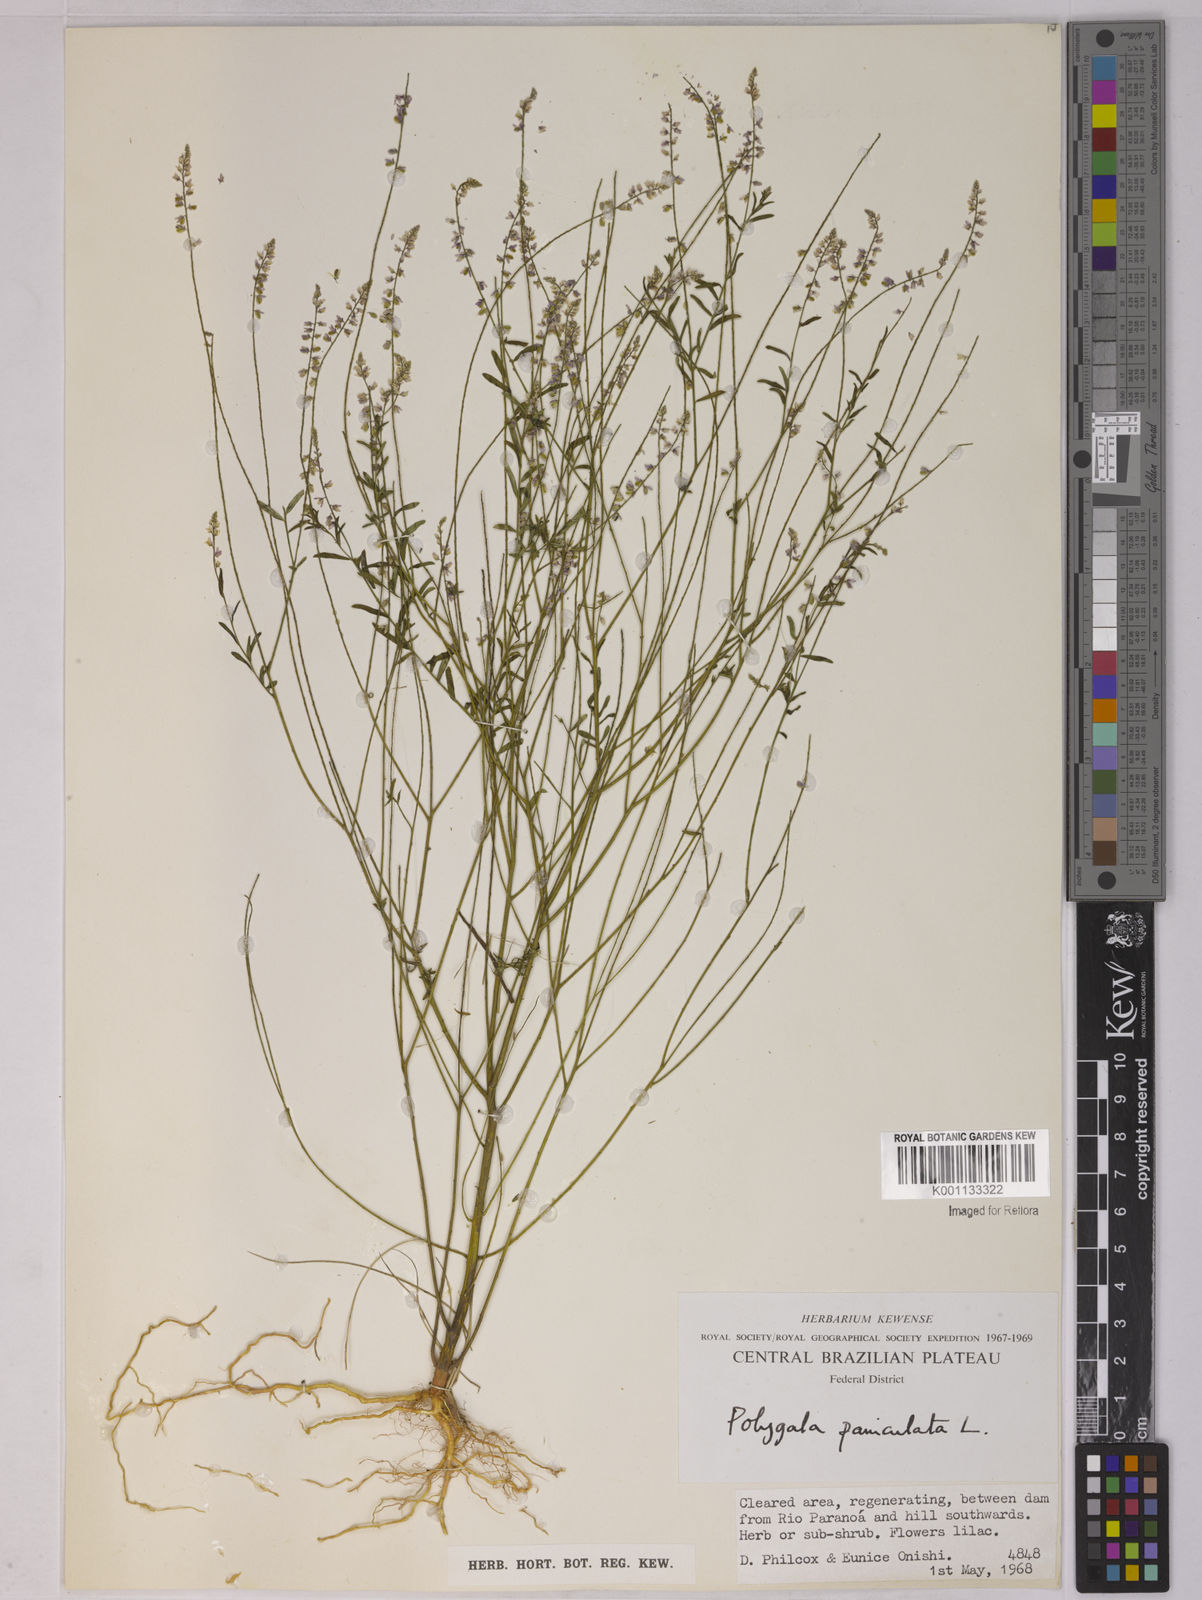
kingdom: Plantae
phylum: Tracheophyta
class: Magnoliopsida
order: Fabales
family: Polygalaceae
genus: Polygala
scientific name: Polygala paniculata
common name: Orosne
